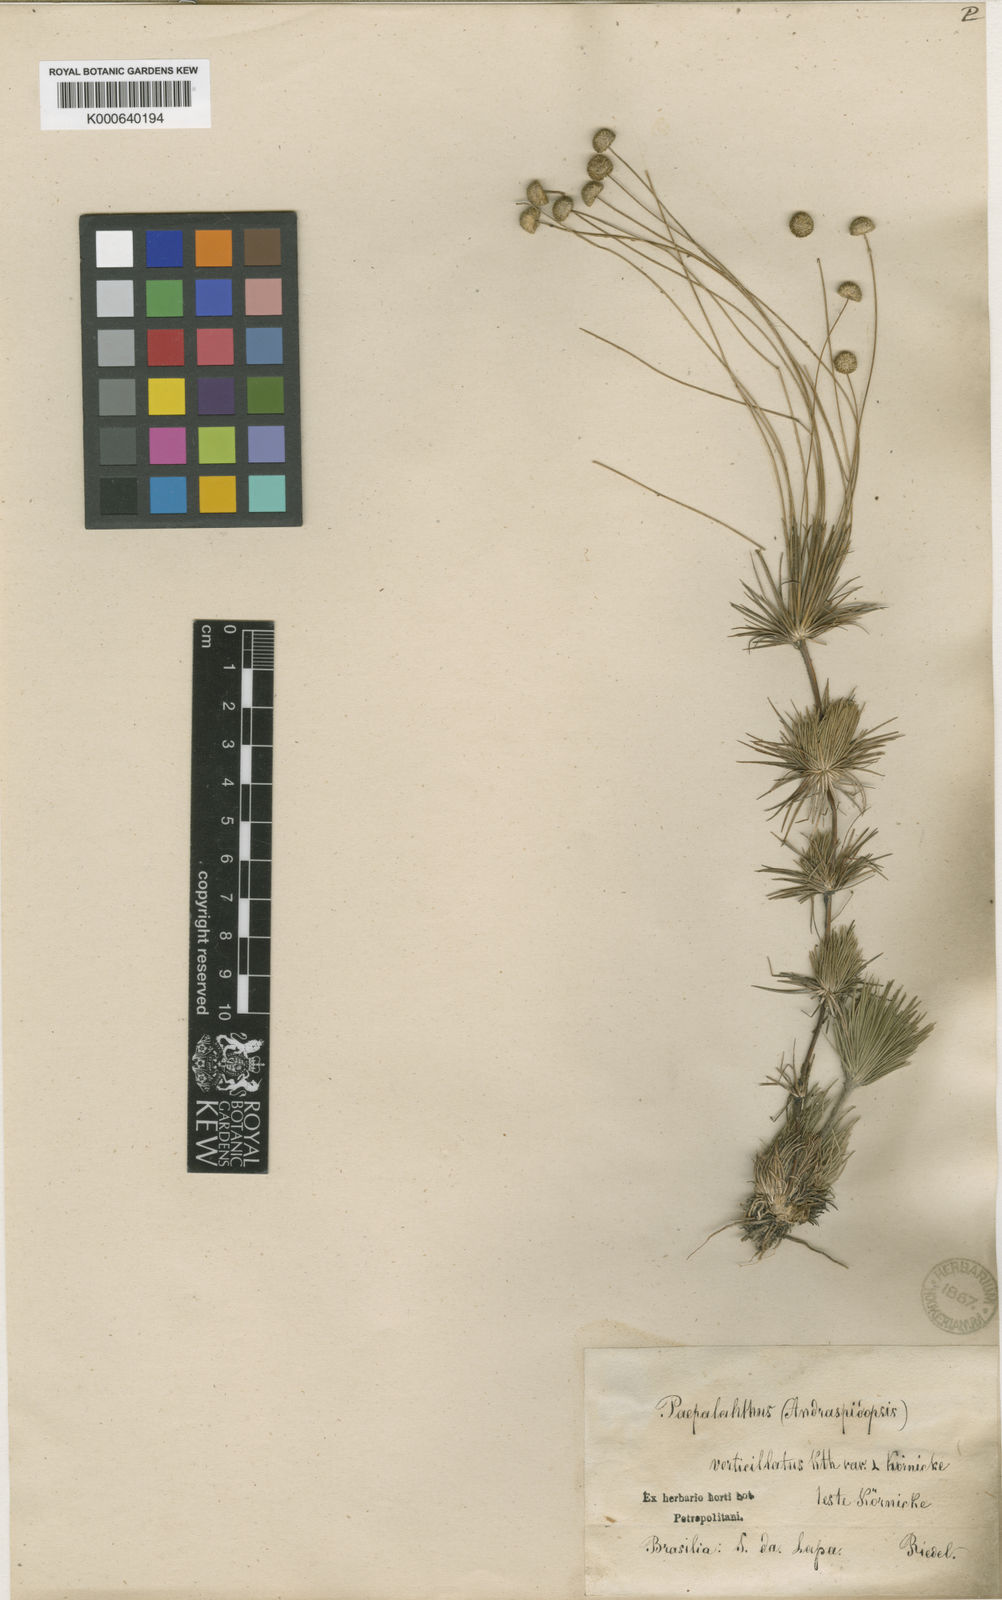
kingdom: Plantae
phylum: Tracheophyta
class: Liliopsida
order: Poales
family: Eriocaulaceae
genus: Syngonanthus
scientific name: Syngonanthus verticillatus
